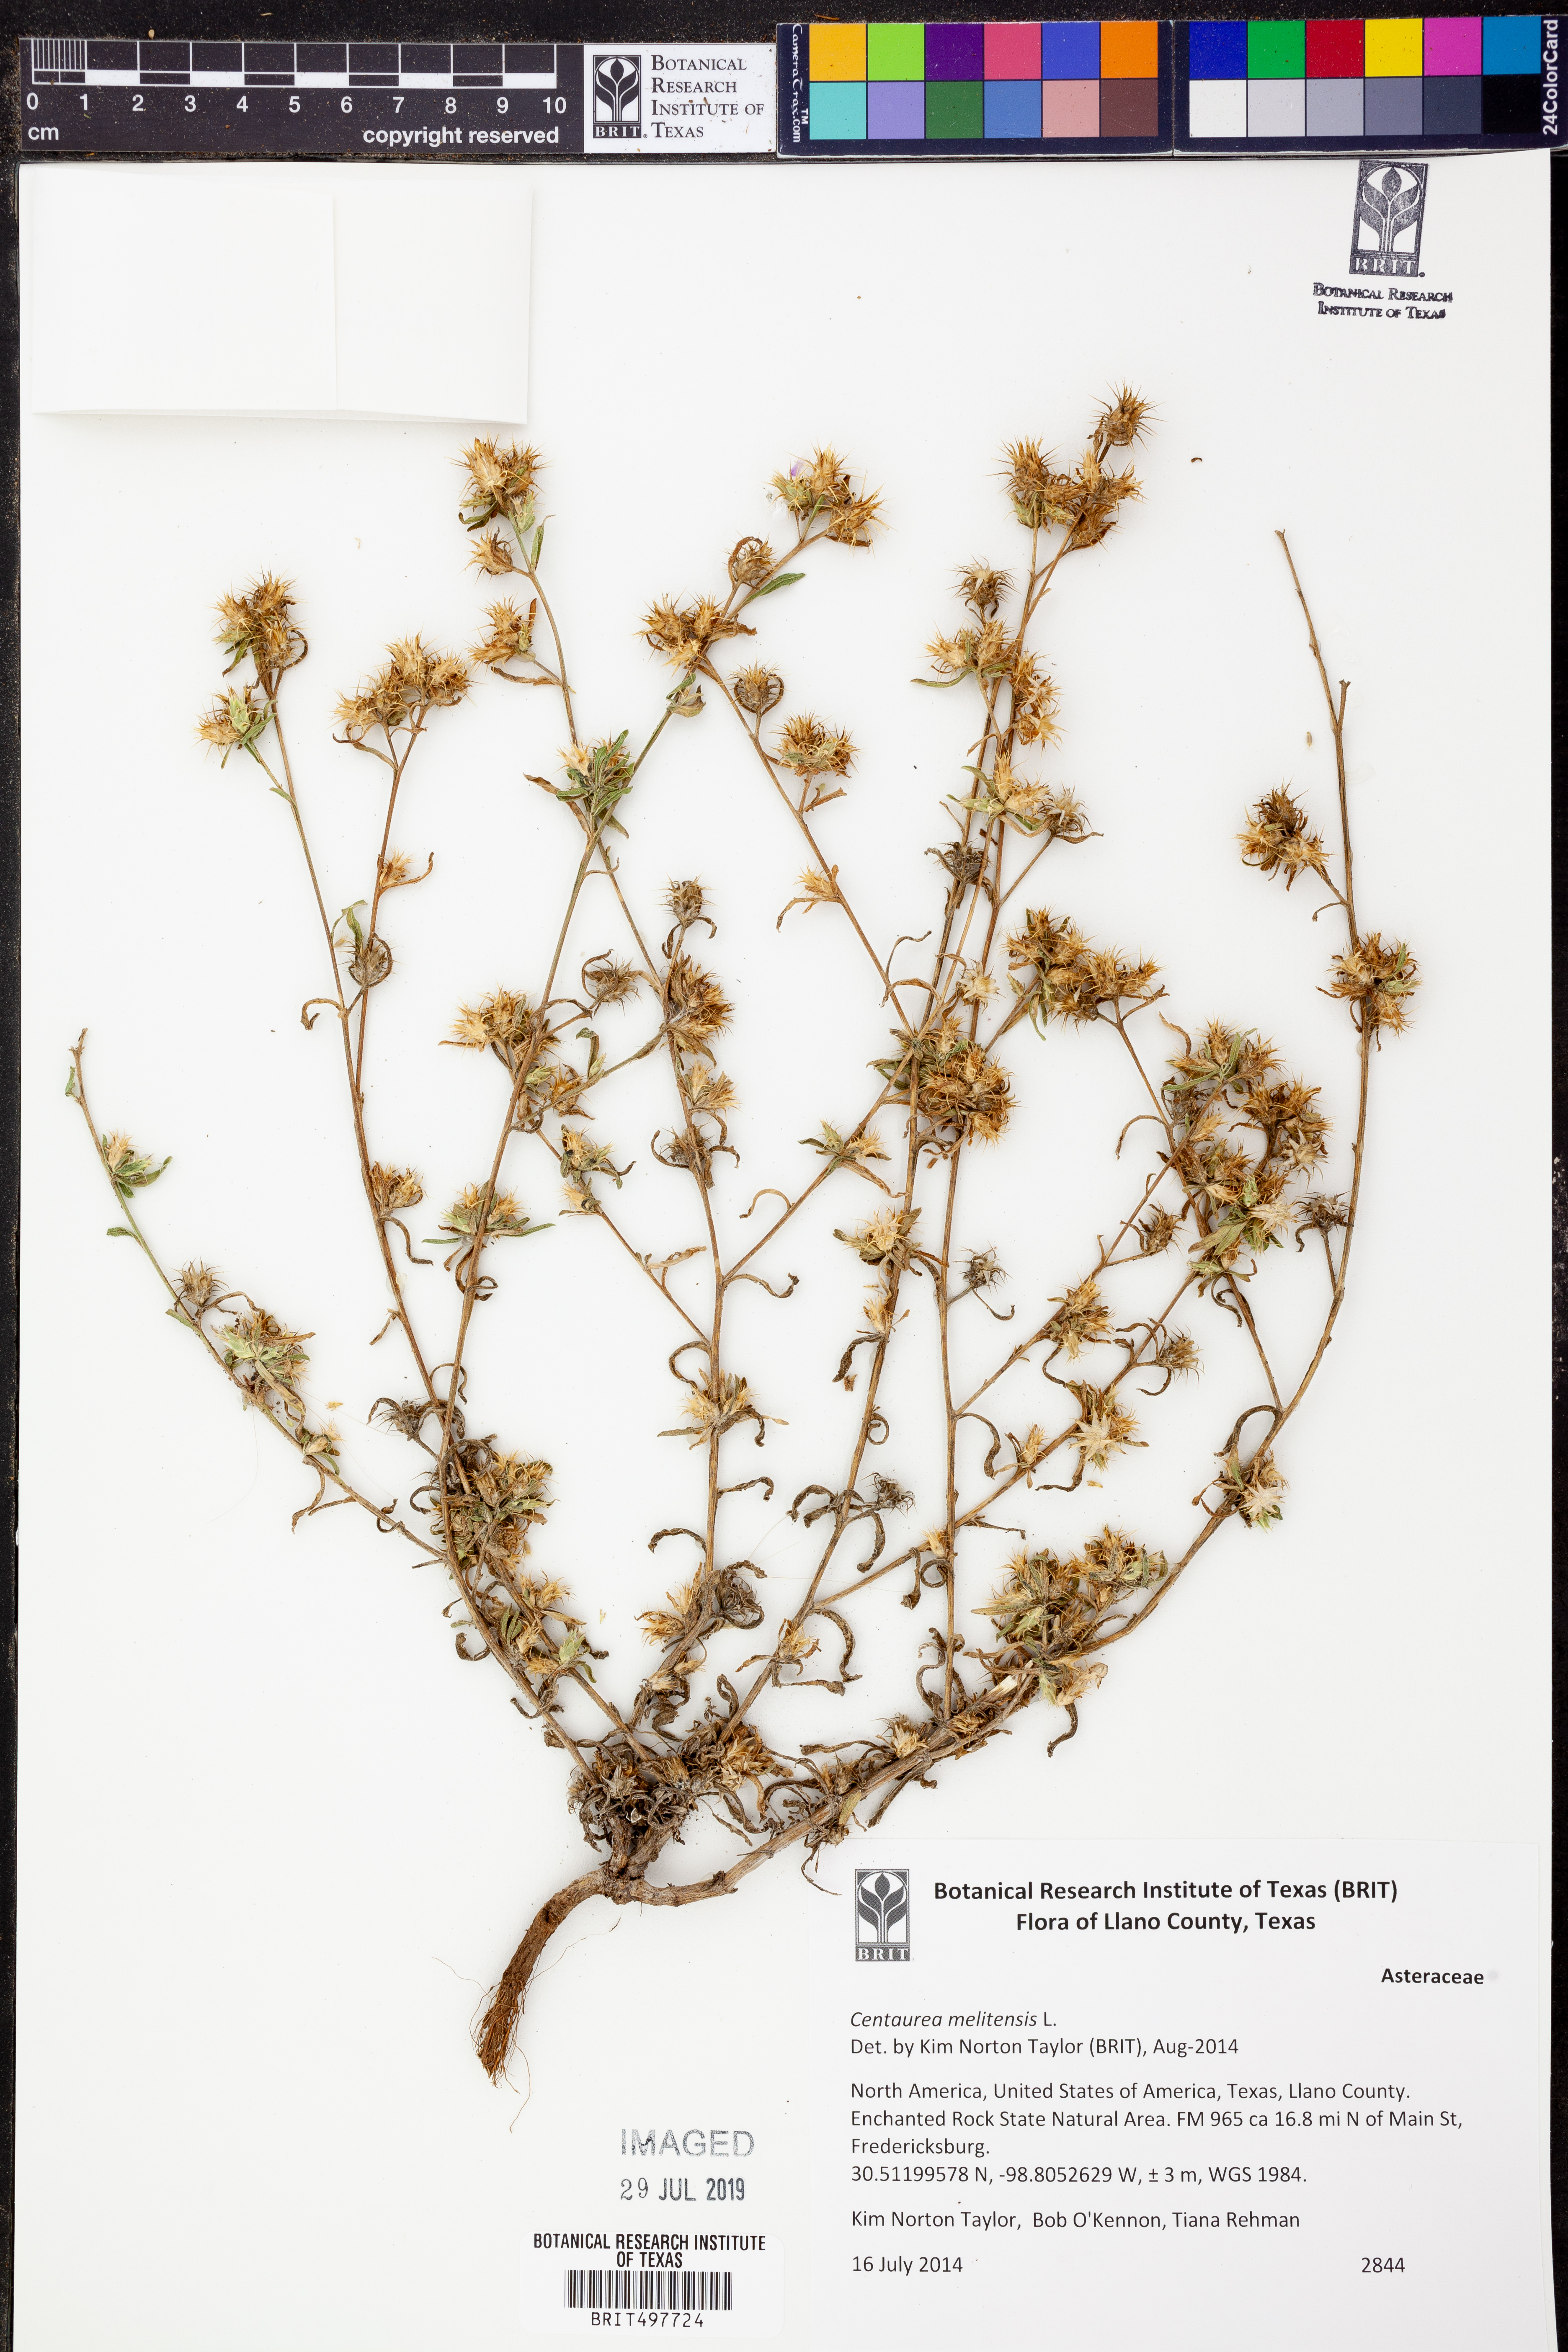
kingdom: Plantae
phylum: Tracheophyta
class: Magnoliopsida
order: Asterales
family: Asteraceae
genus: Centaurea
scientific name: Centaurea melitensis
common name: Maltese star-thistle
